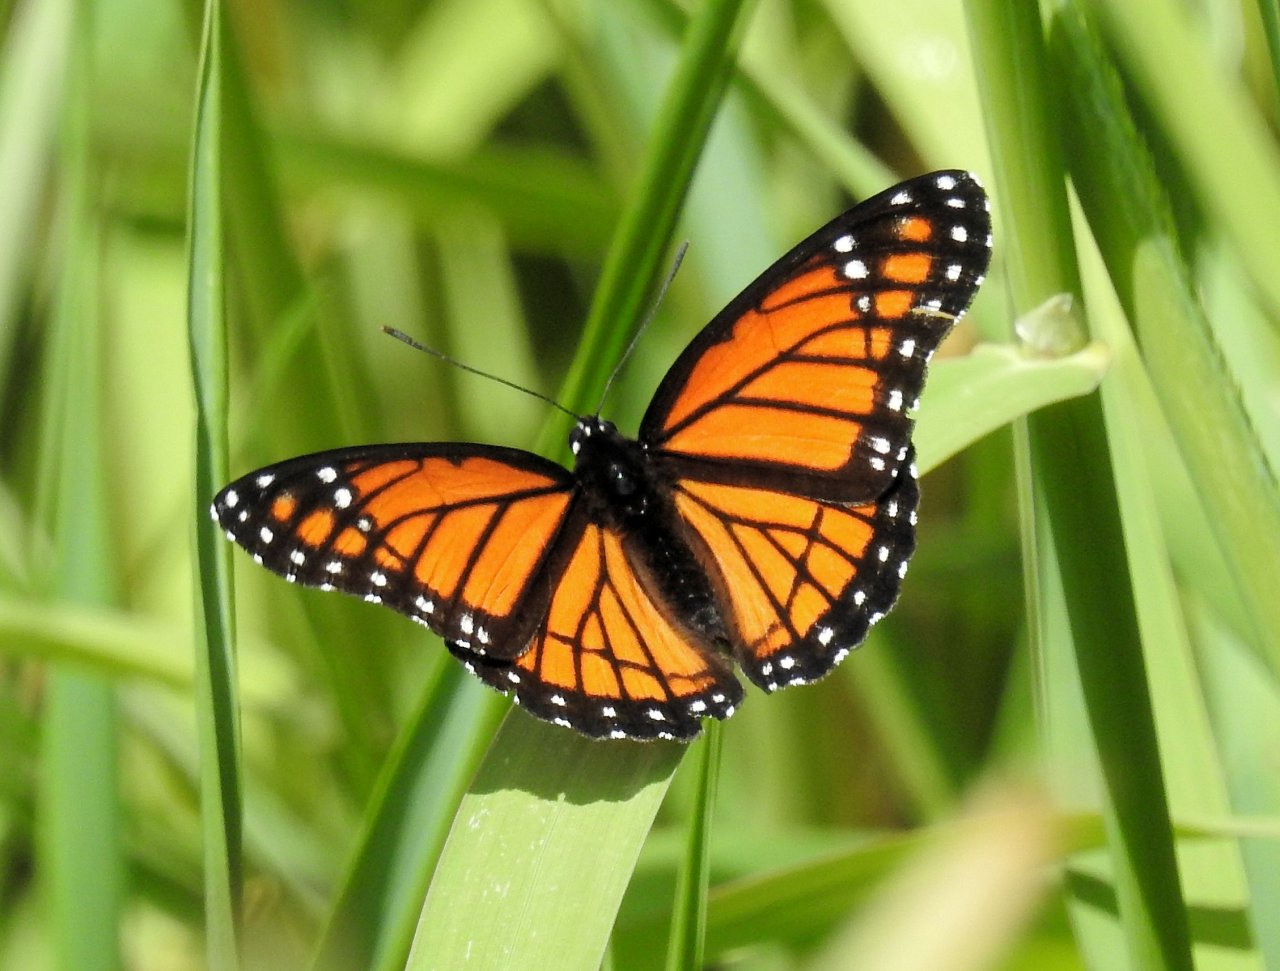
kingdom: Animalia
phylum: Arthropoda
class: Insecta
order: Lepidoptera
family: Nymphalidae
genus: Limenitis
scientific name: Limenitis archippus
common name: Viceroy
